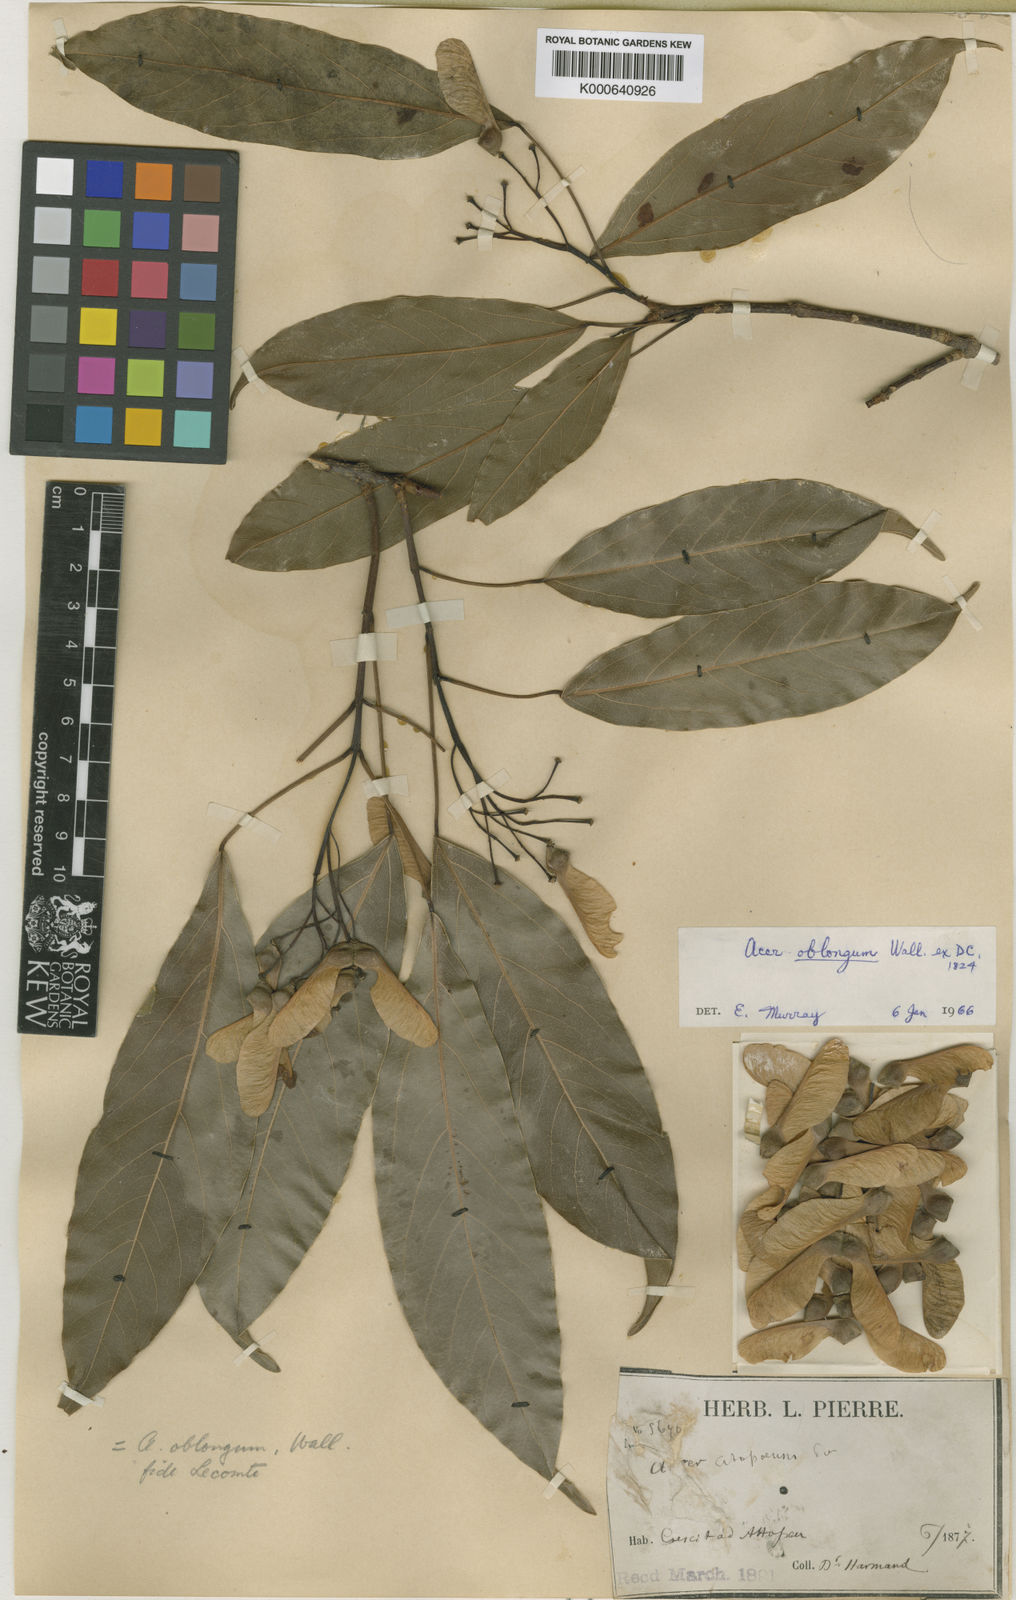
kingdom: Plantae
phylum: Tracheophyta
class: Magnoliopsida
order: Sapindales
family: Sapindaceae
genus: Acer
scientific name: Acer oblongum
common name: Himalayan maple
